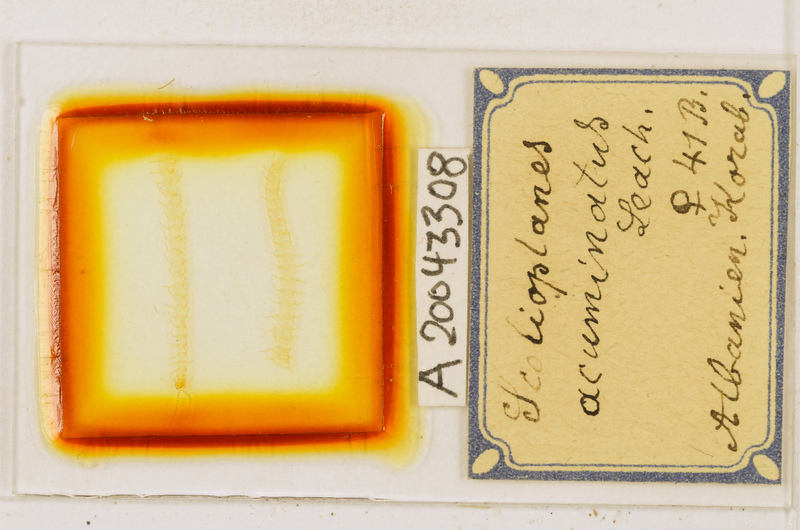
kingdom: Animalia
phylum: Arthropoda
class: Chilopoda
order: Geophilomorpha
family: Linotaeniidae
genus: Strigamia
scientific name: Strigamia acuminata
